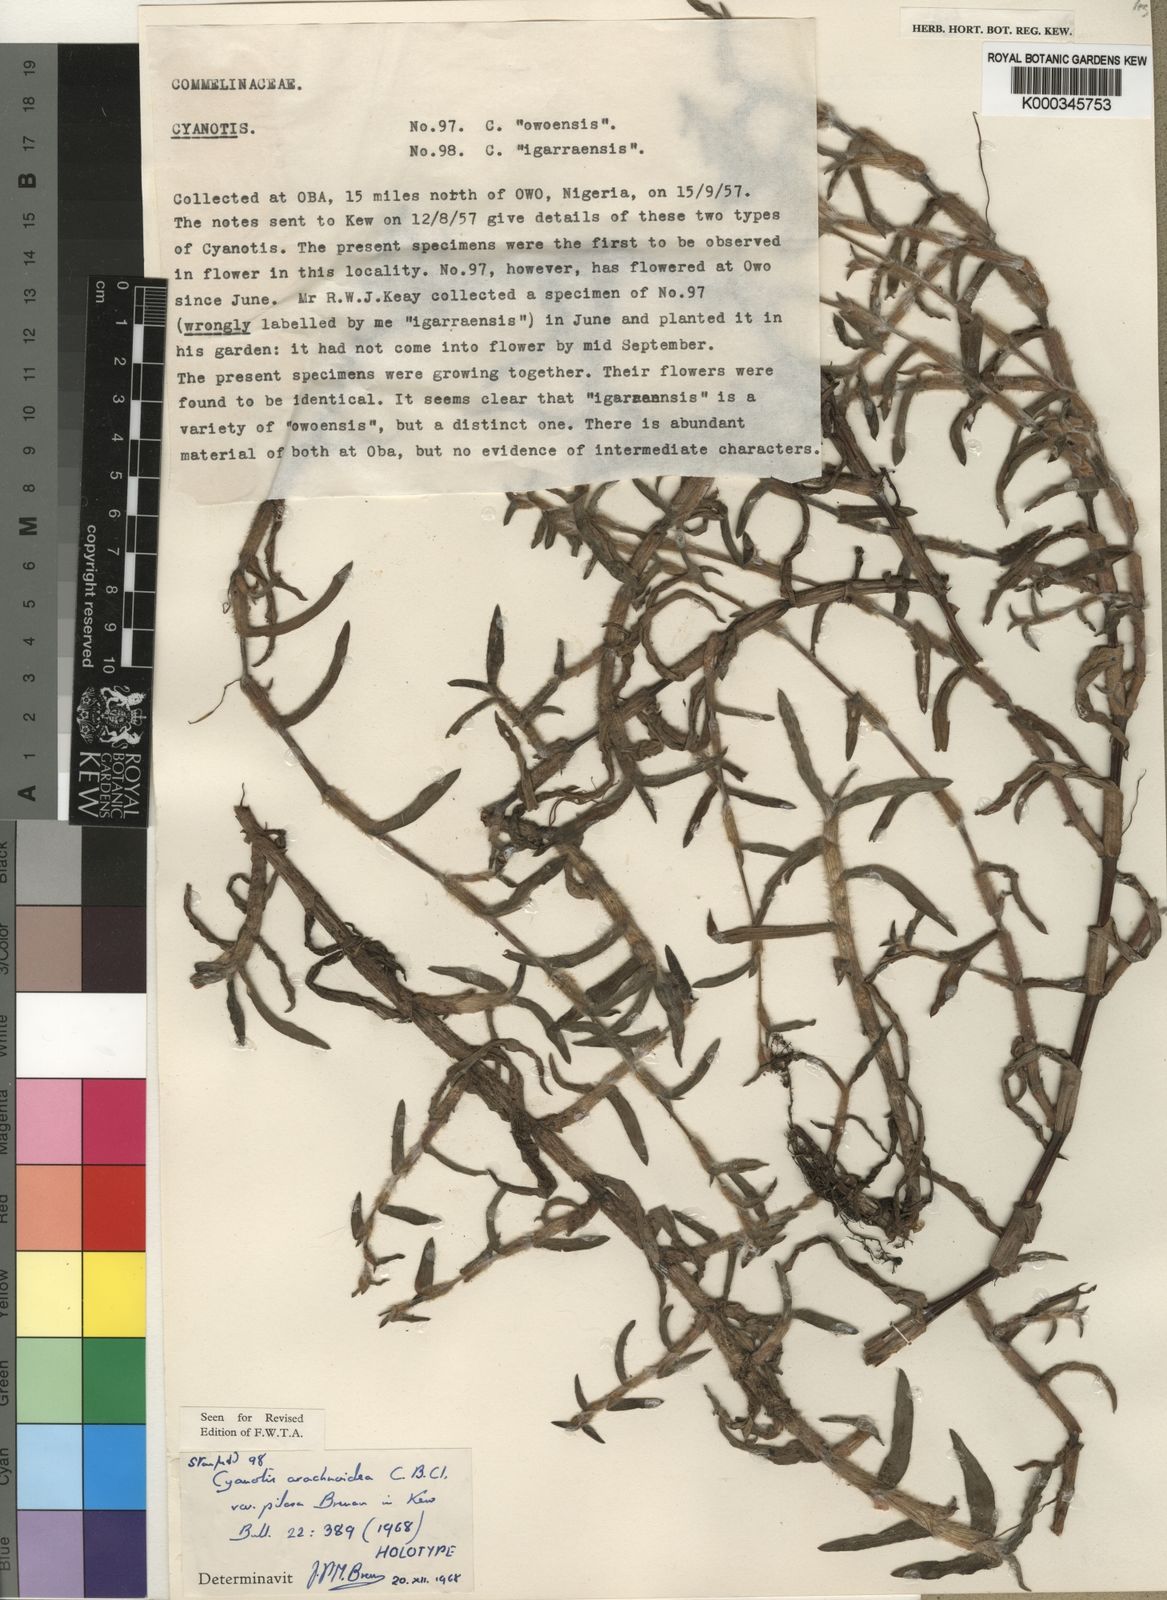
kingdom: Plantae
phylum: Tracheophyta
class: Liliopsida
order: Commelinales
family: Commelinaceae
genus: Cyanotis
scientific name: Cyanotis arachnoidea
